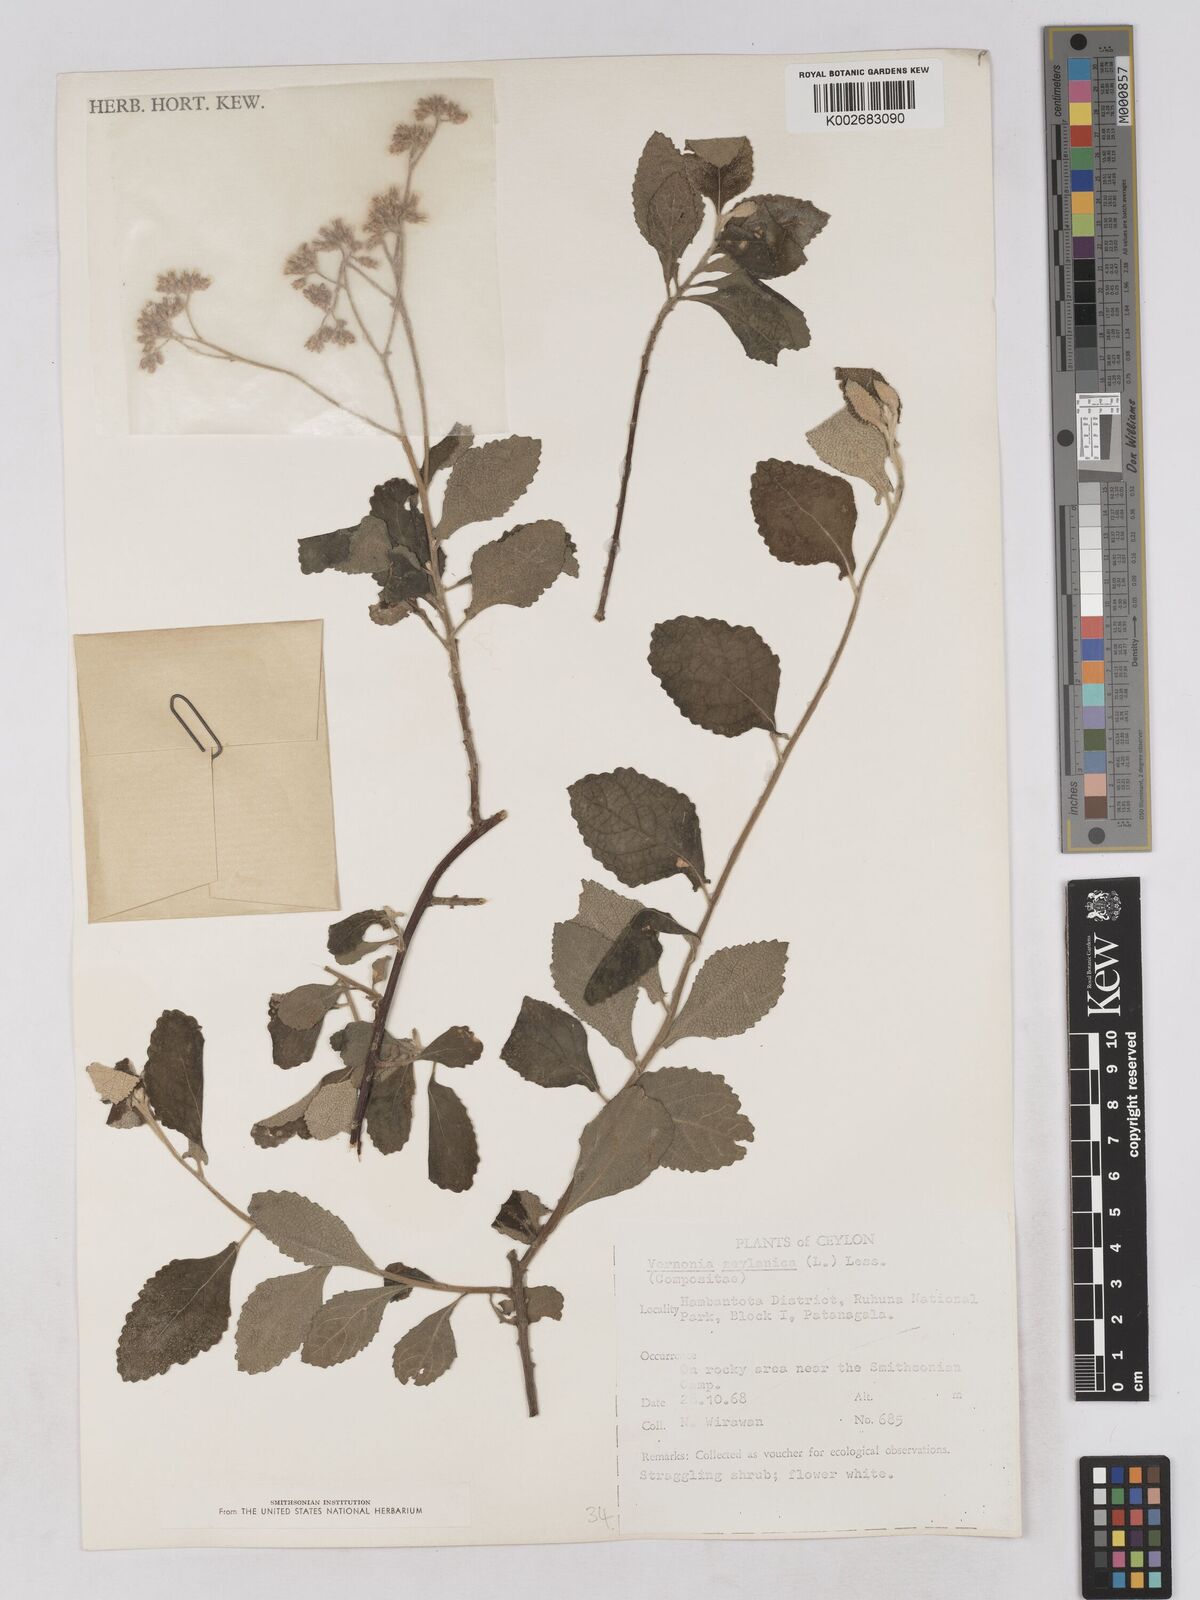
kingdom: Plantae
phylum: Tracheophyta
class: Magnoliopsida
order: Asterales
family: Asteraceae
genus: Jeffreycia
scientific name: Jeffreycia zeylanica
